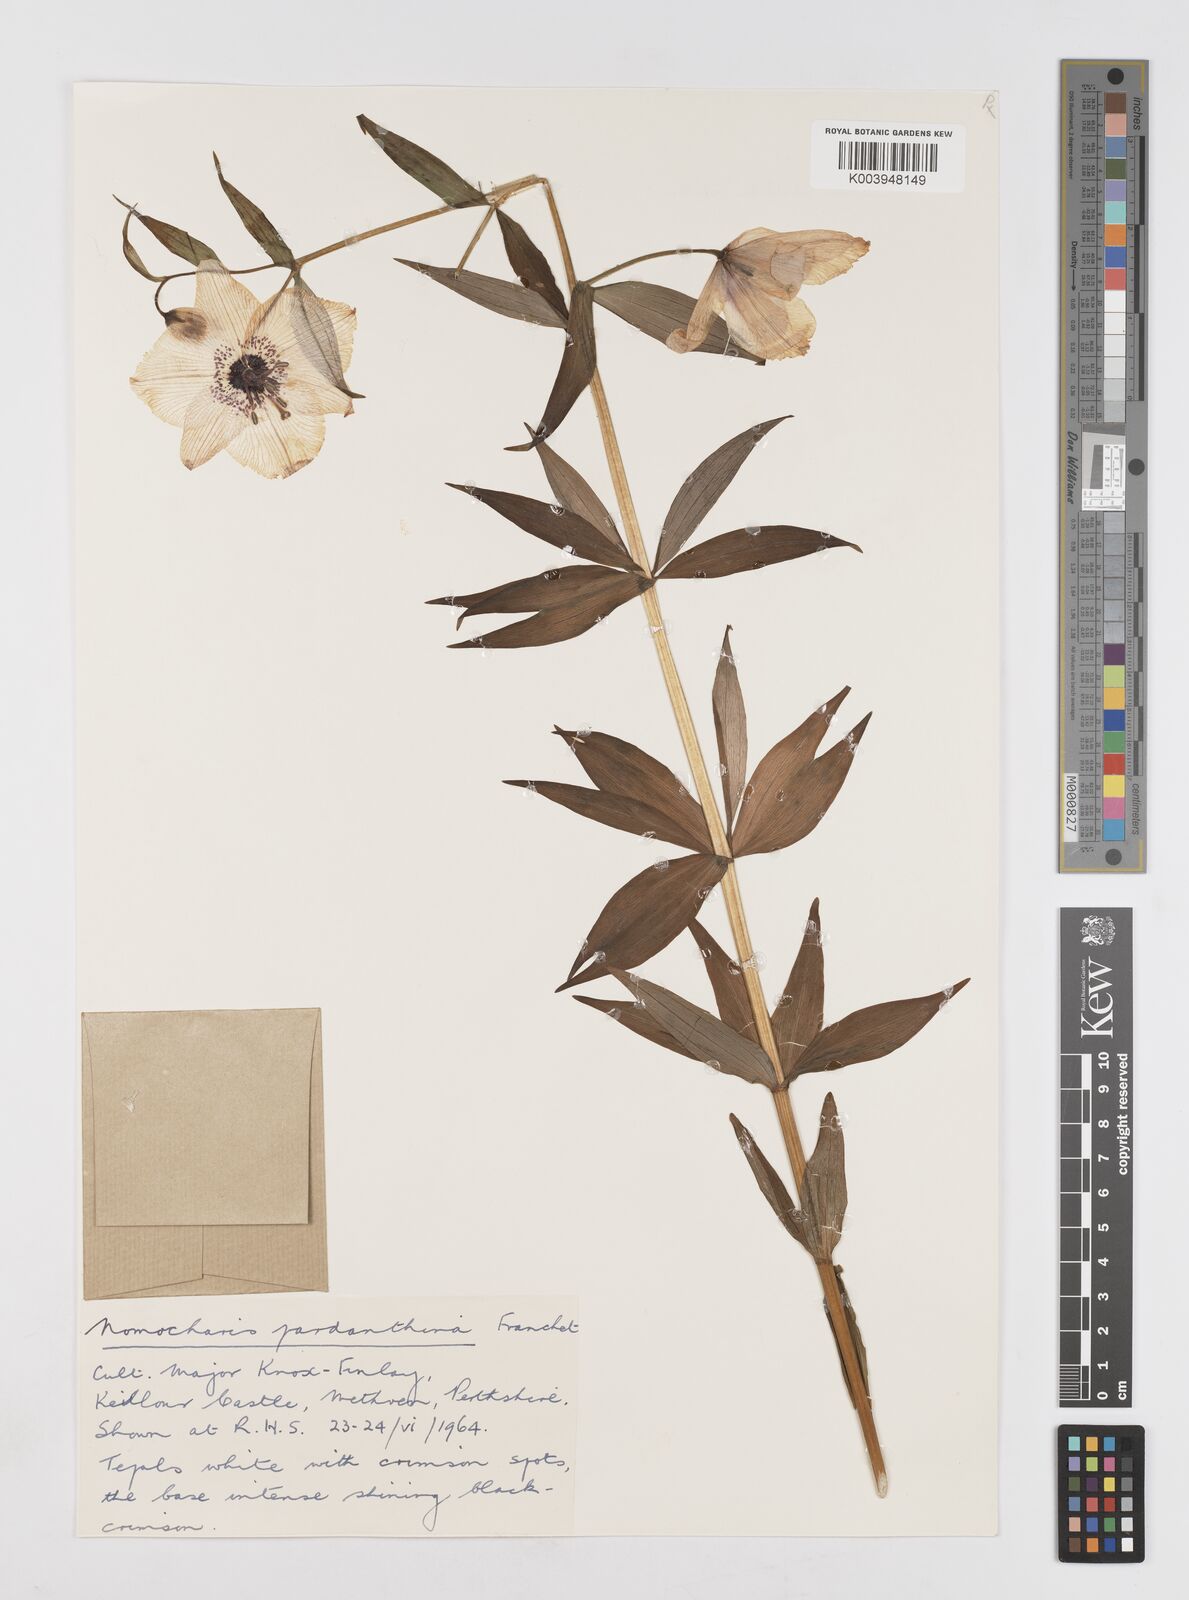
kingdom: Plantae
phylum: Tracheophyta
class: Liliopsida
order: Liliales
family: Liliaceae
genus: Lilium
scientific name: Lilium Nomocharis finlayorum
